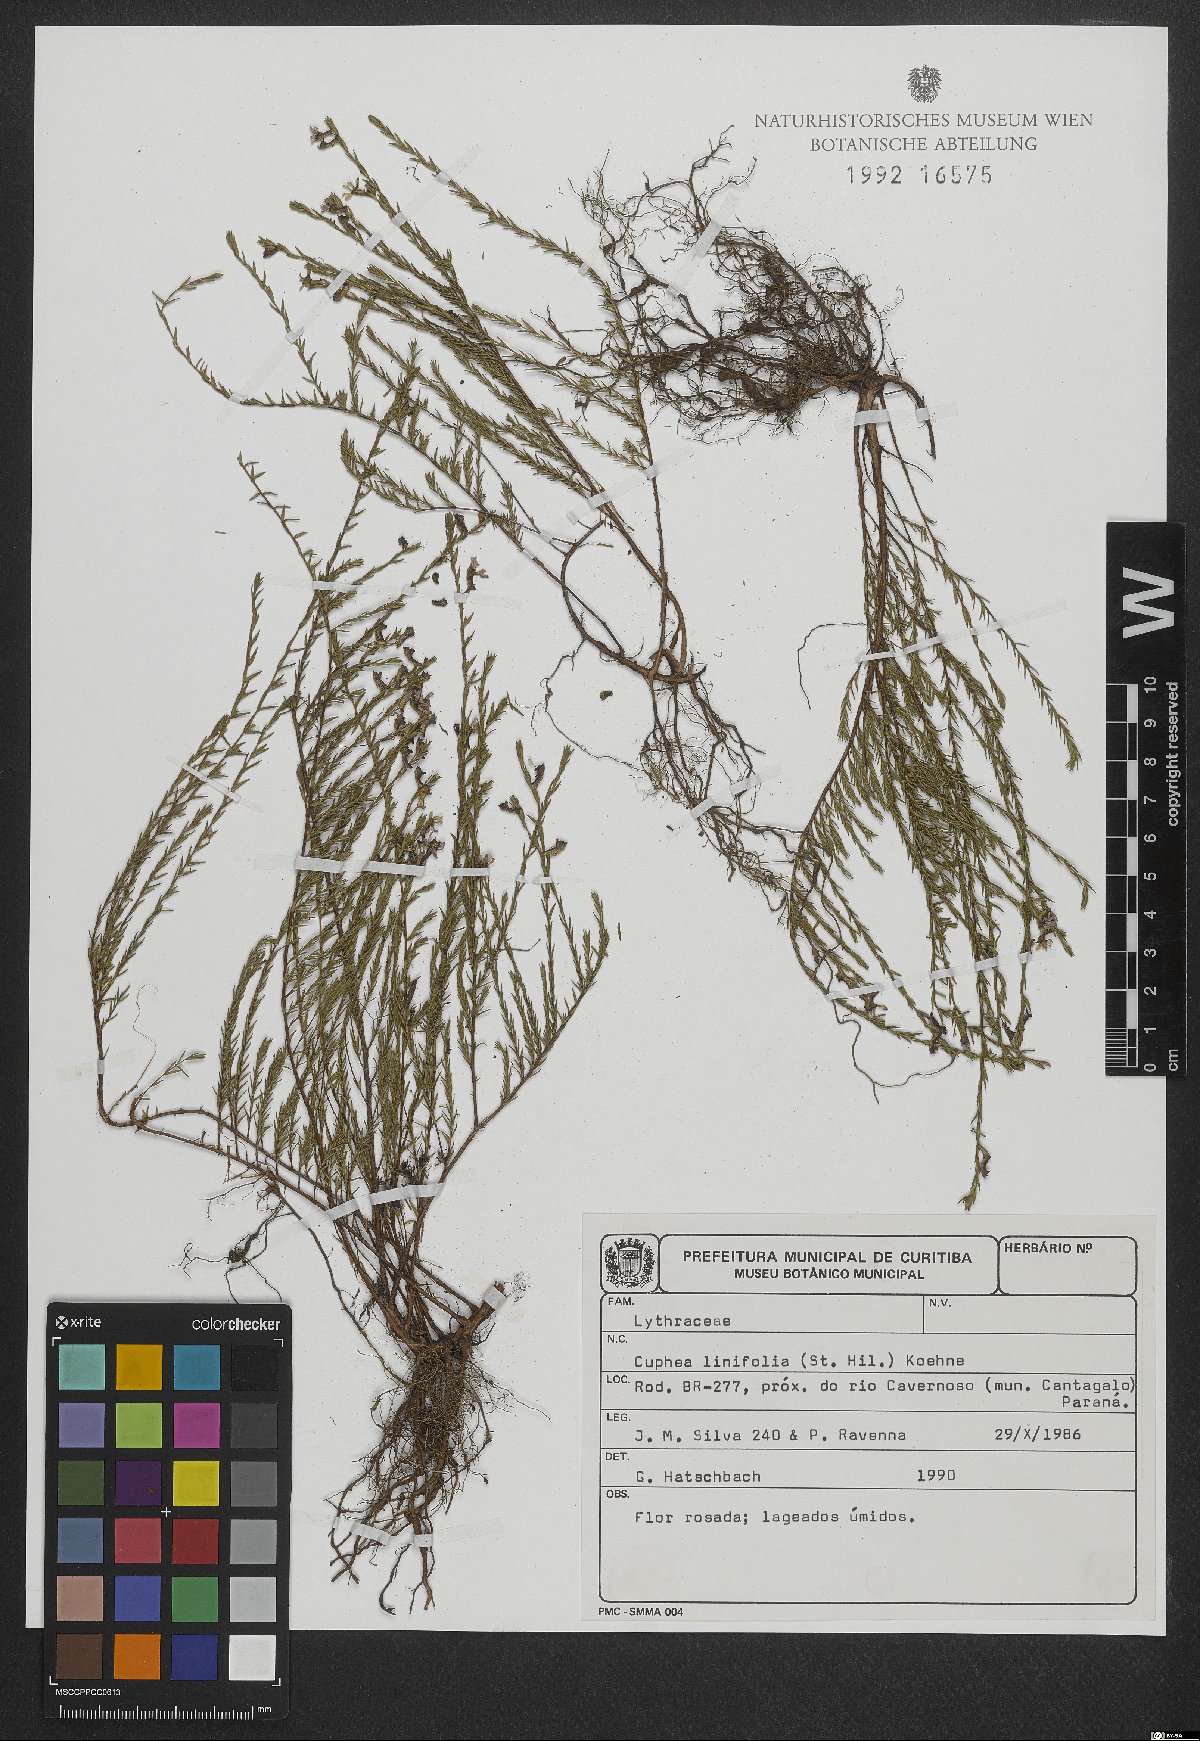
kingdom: Plantae
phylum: Tracheophyta
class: Magnoliopsida
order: Myrtales
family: Lythraceae
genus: Cuphea
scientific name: Cuphea linifolia
